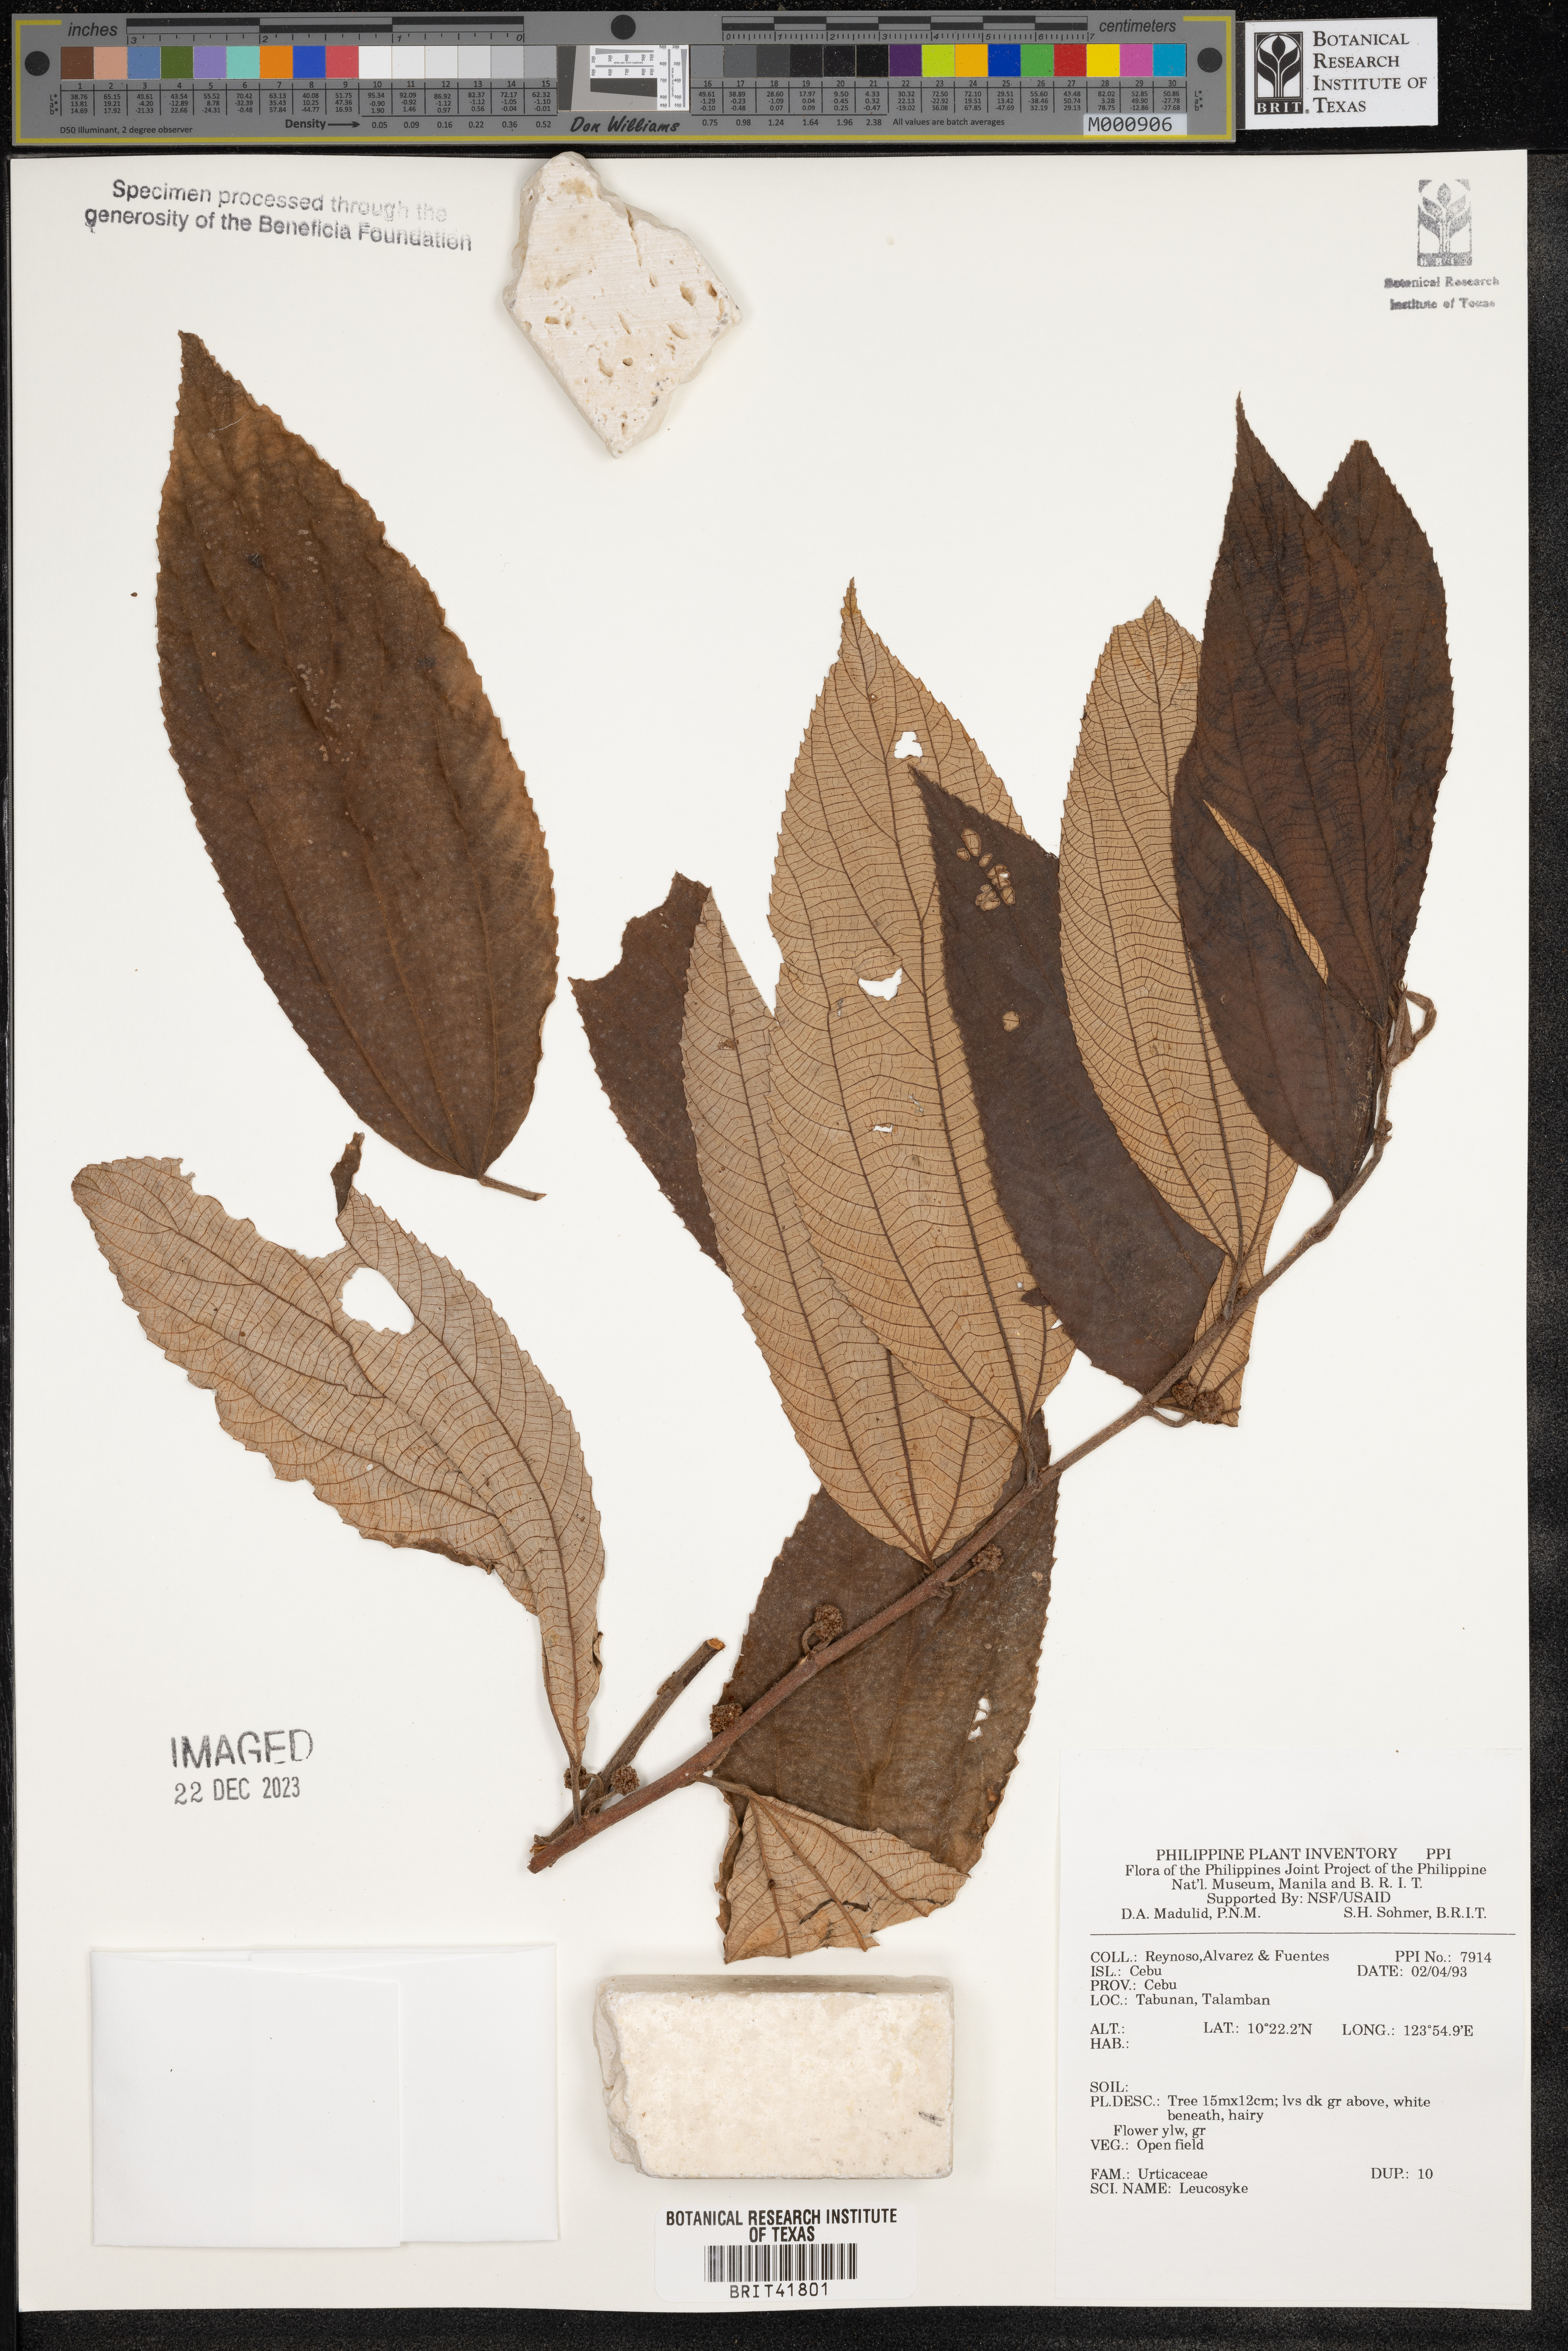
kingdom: Plantae
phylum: Tracheophyta
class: Magnoliopsida
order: Rosales
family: Urticaceae
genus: Leucosyke
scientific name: Leucosyke
